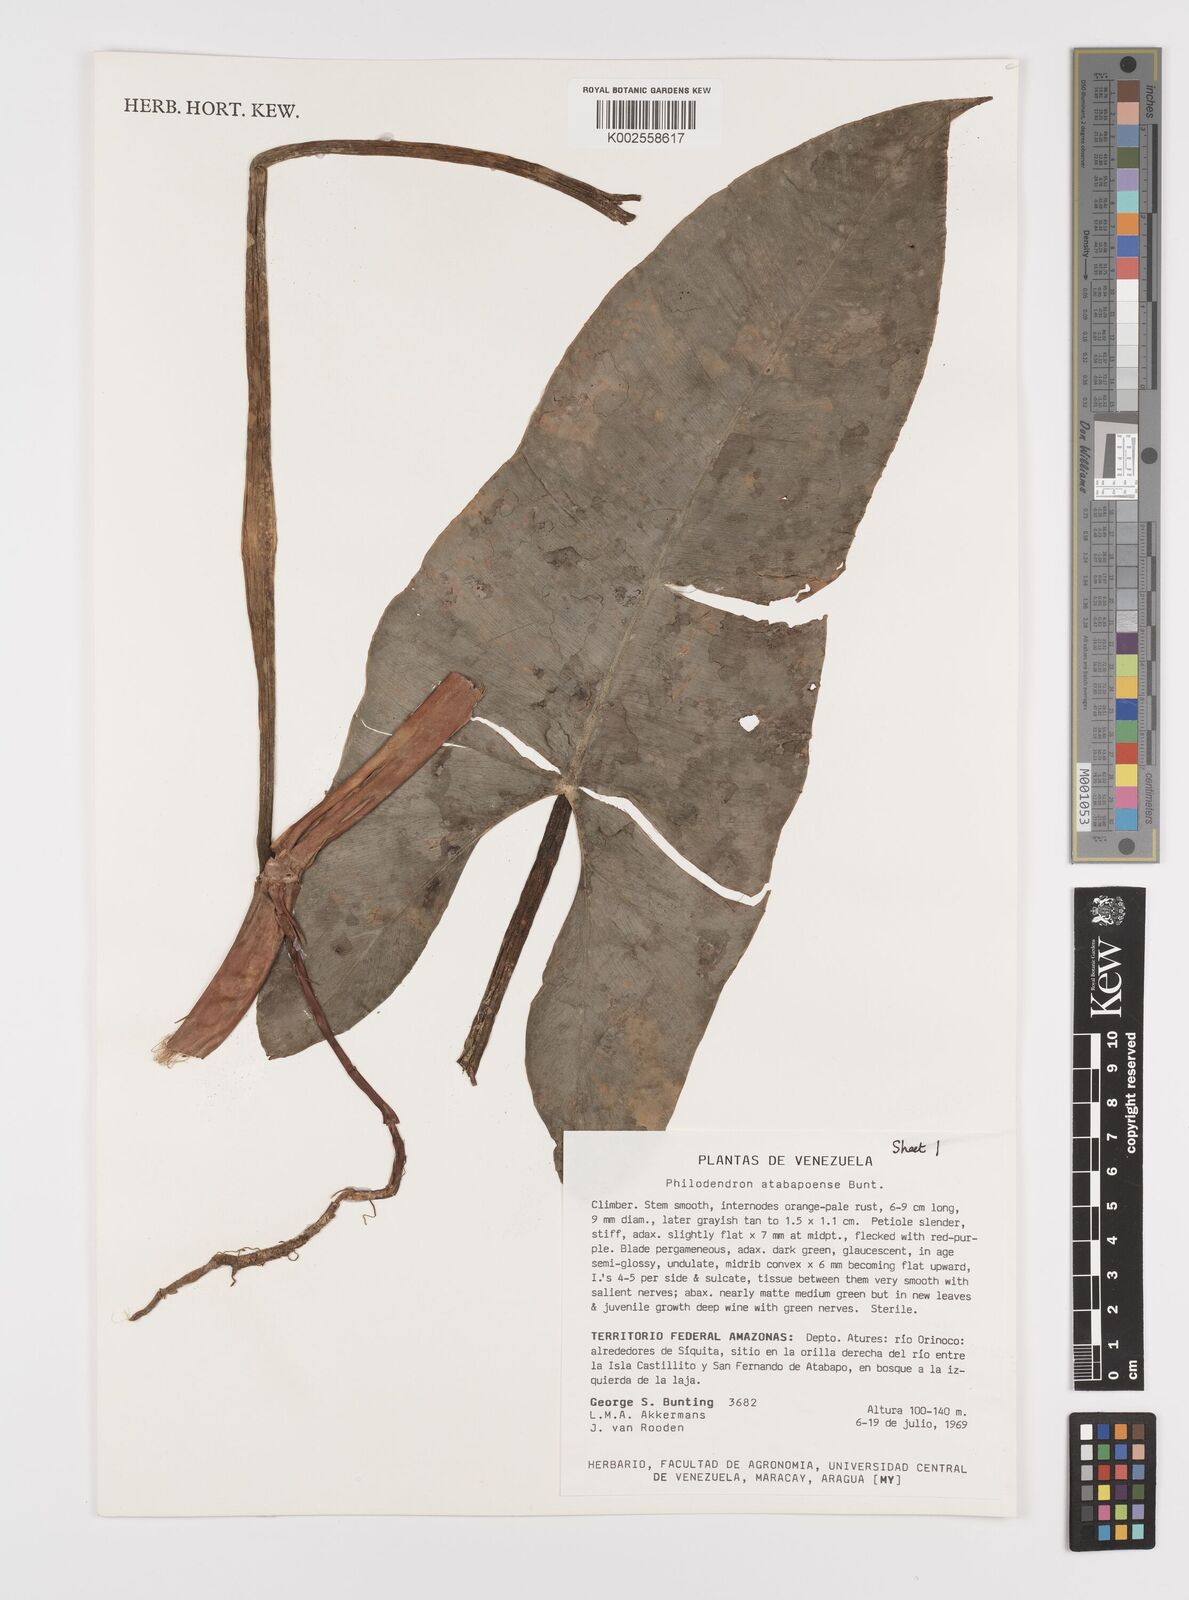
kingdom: Plantae
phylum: Tracheophyta
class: Liliopsida
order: Alismatales
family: Araceae
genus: Philodendron
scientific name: Philodendron atabapoense
